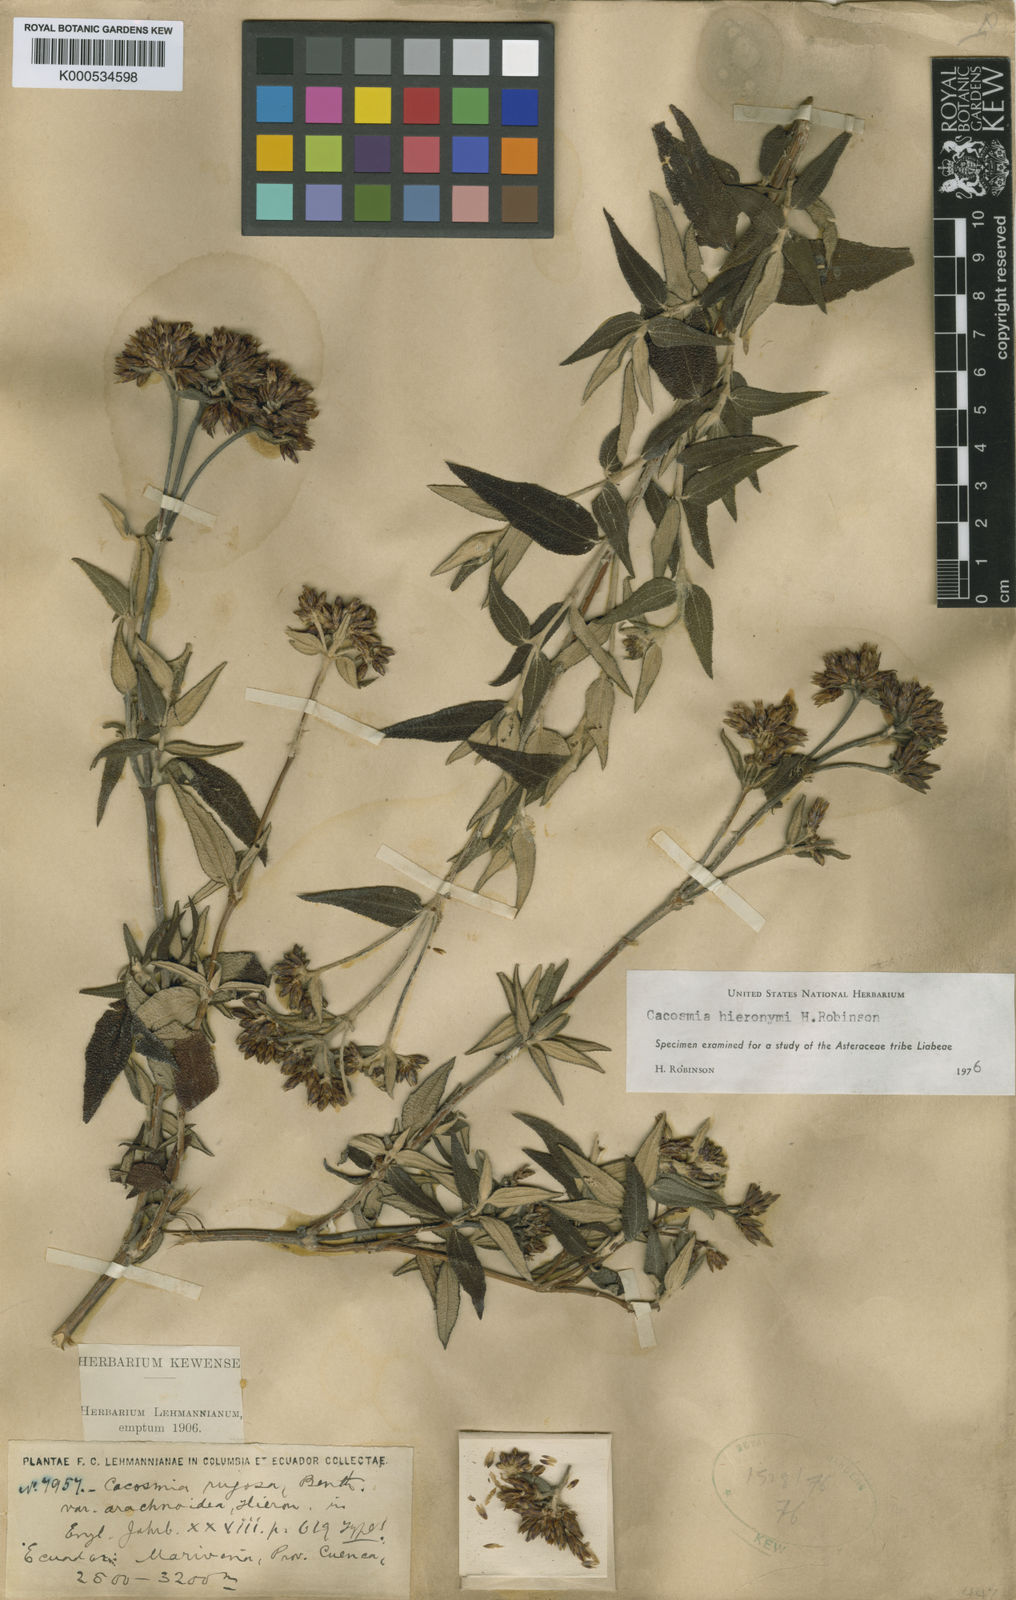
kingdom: Plantae
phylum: Tracheophyta
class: Magnoliopsida
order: Asterales
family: Asteraceae
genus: Cacosmia
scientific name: Cacosmia hieronymi
